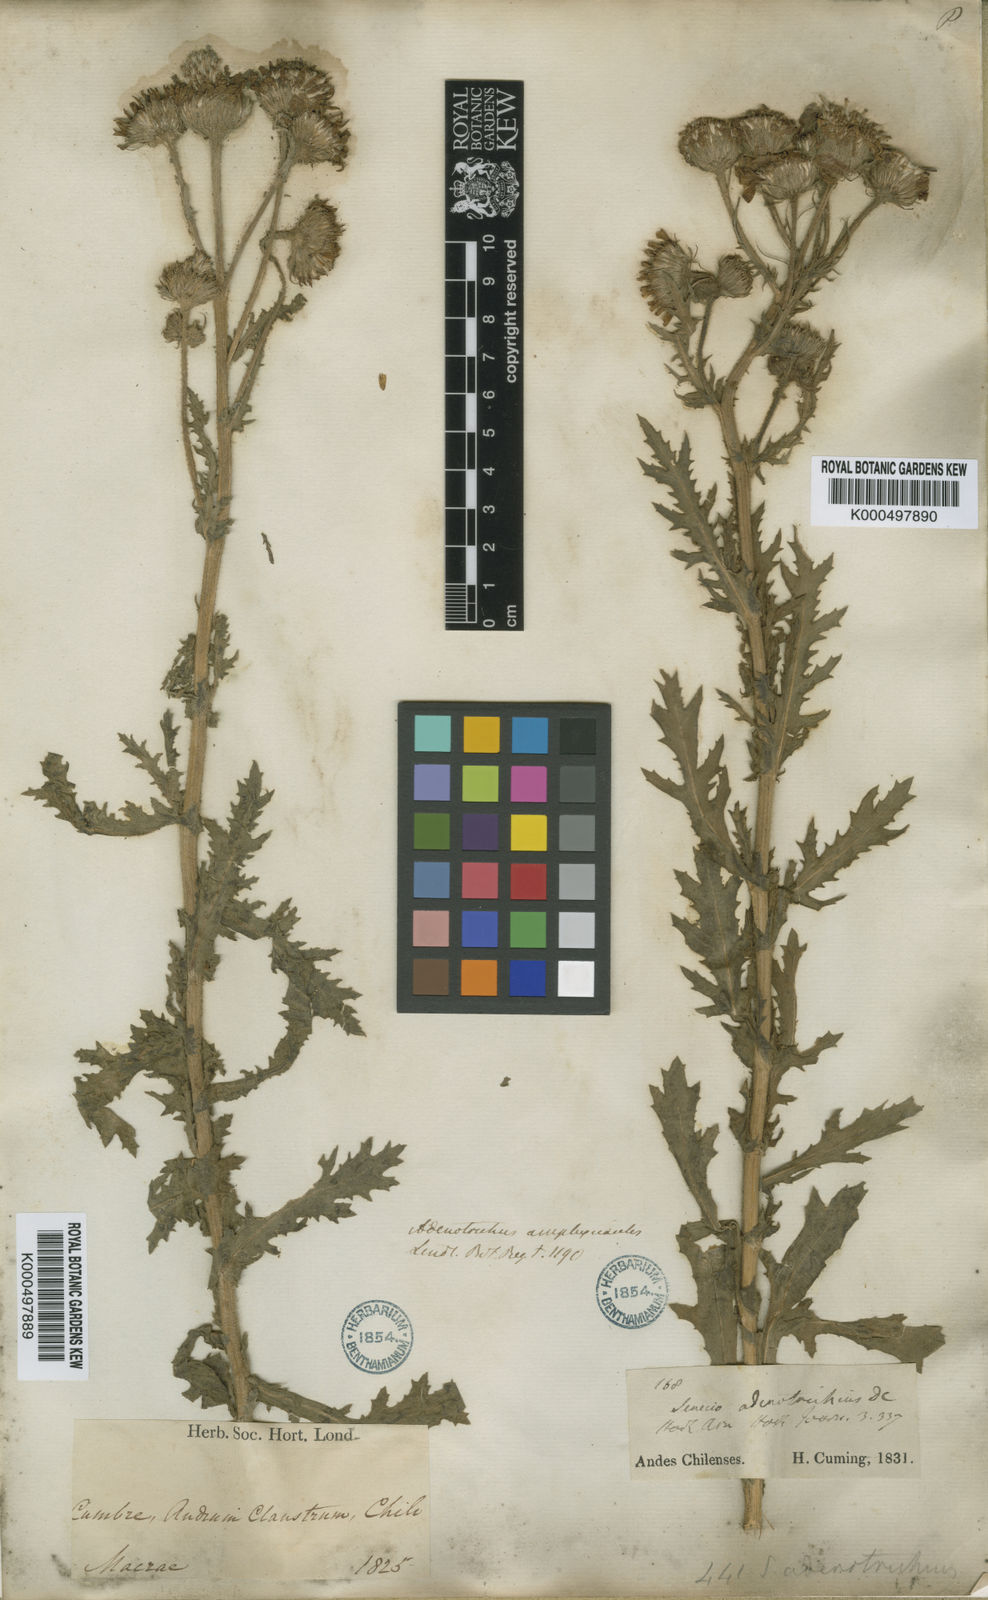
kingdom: Plantae
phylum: Tracheophyta
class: Magnoliopsida
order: Asterales
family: Asteraceae
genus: Senecio
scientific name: Senecio adenotrichius
